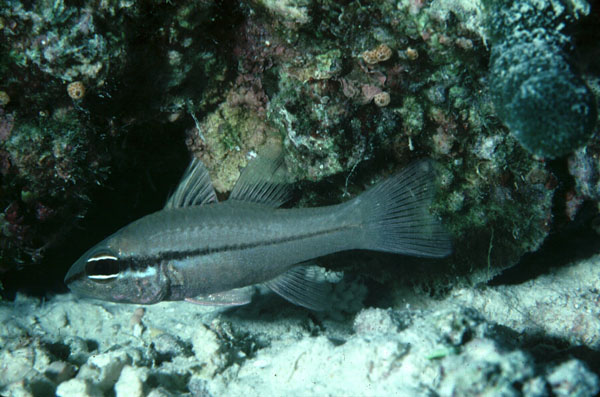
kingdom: Animalia
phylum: Chordata
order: Perciformes
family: Apogonidae
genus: Pristiapogon
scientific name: Pristiapogon abrogramma
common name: Lateralstripe cardinalfish
